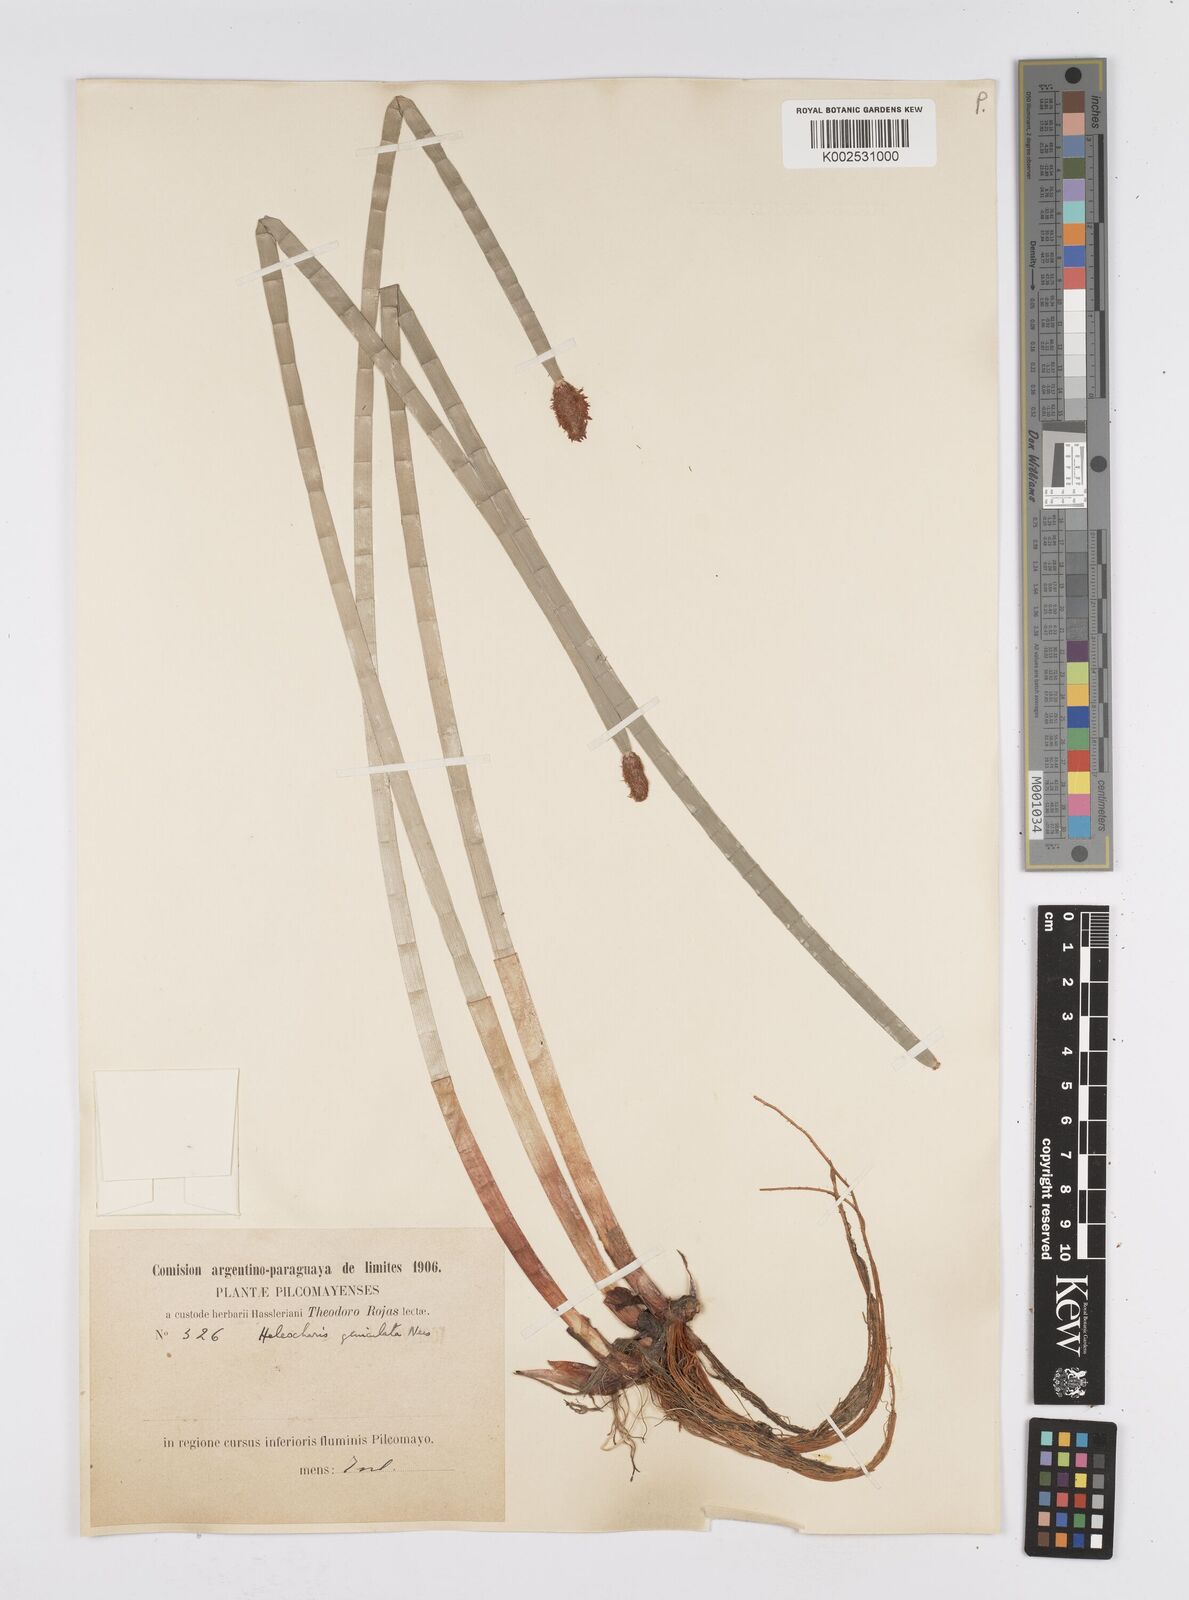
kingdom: Plantae
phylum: Tracheophyta
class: Liliopsida
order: Poales
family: Cyperaceae
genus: Eleocharis
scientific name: Eleocharis elegans
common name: Elegant spike-rush
